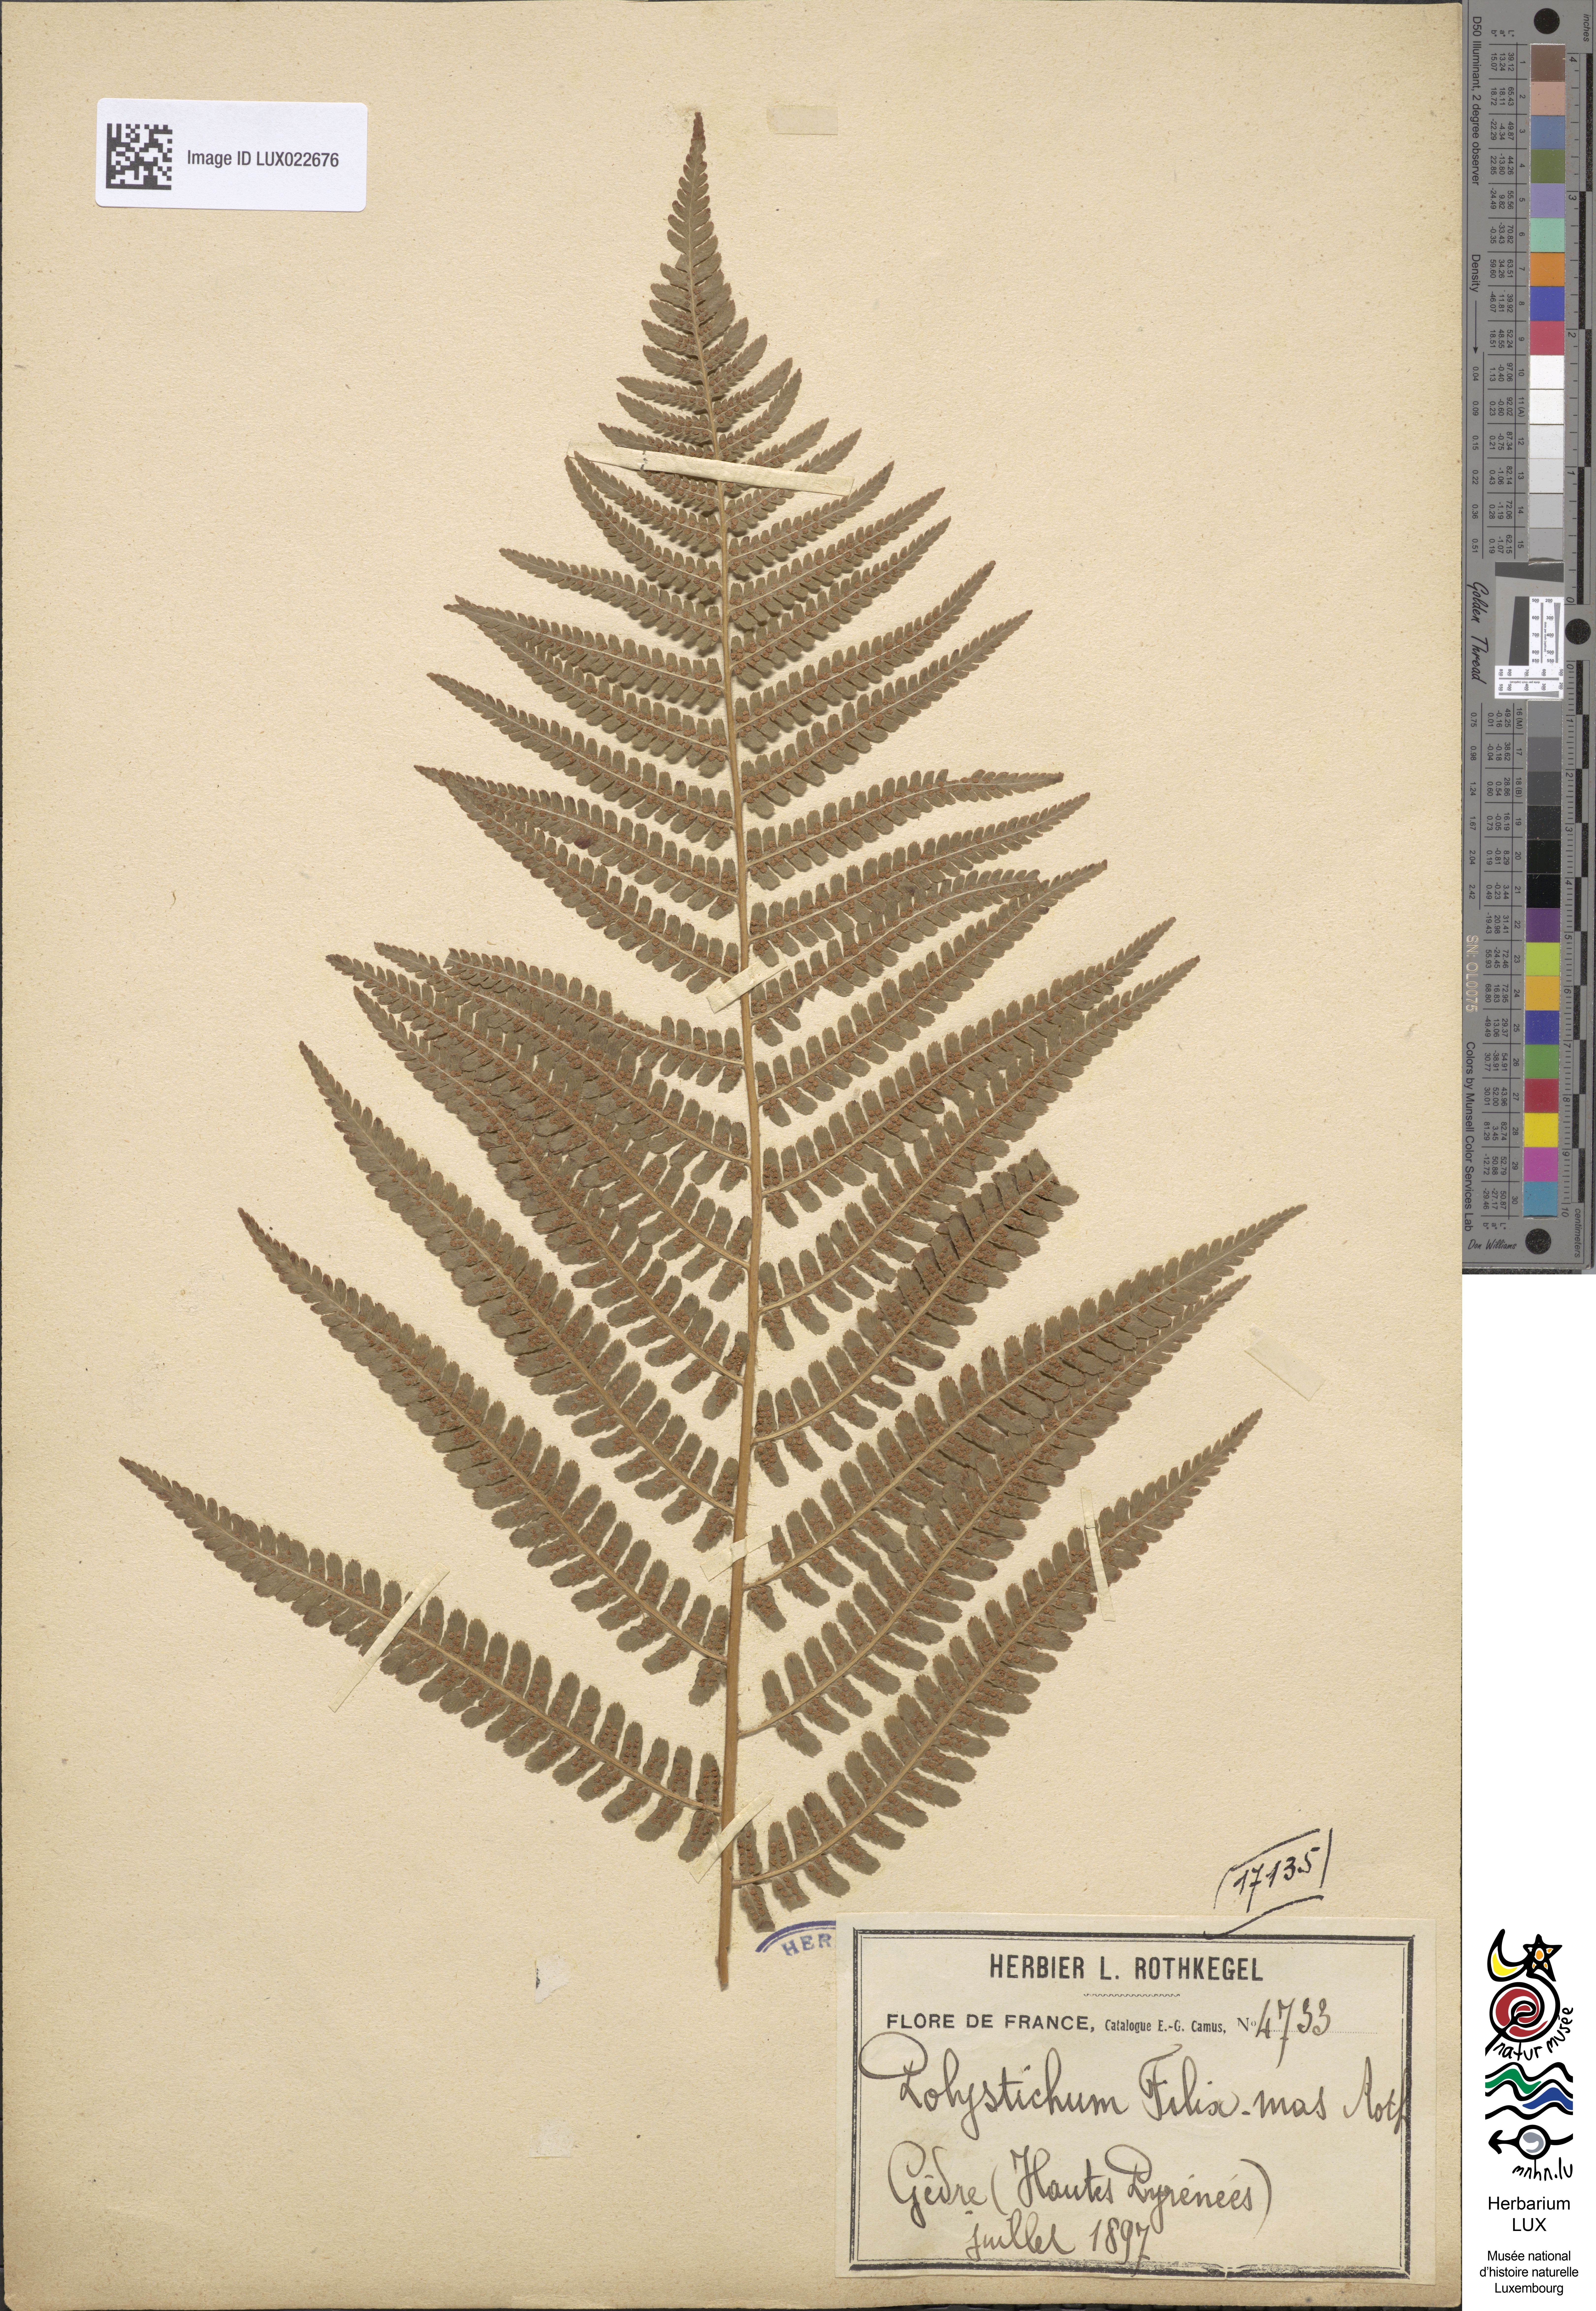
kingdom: Plantae
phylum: Tracheophyta
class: Polypodiopsida
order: Polypodiales
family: Dryopteridaceae
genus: Dryopteris
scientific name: Dryopteris filix-mas
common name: Male fern
